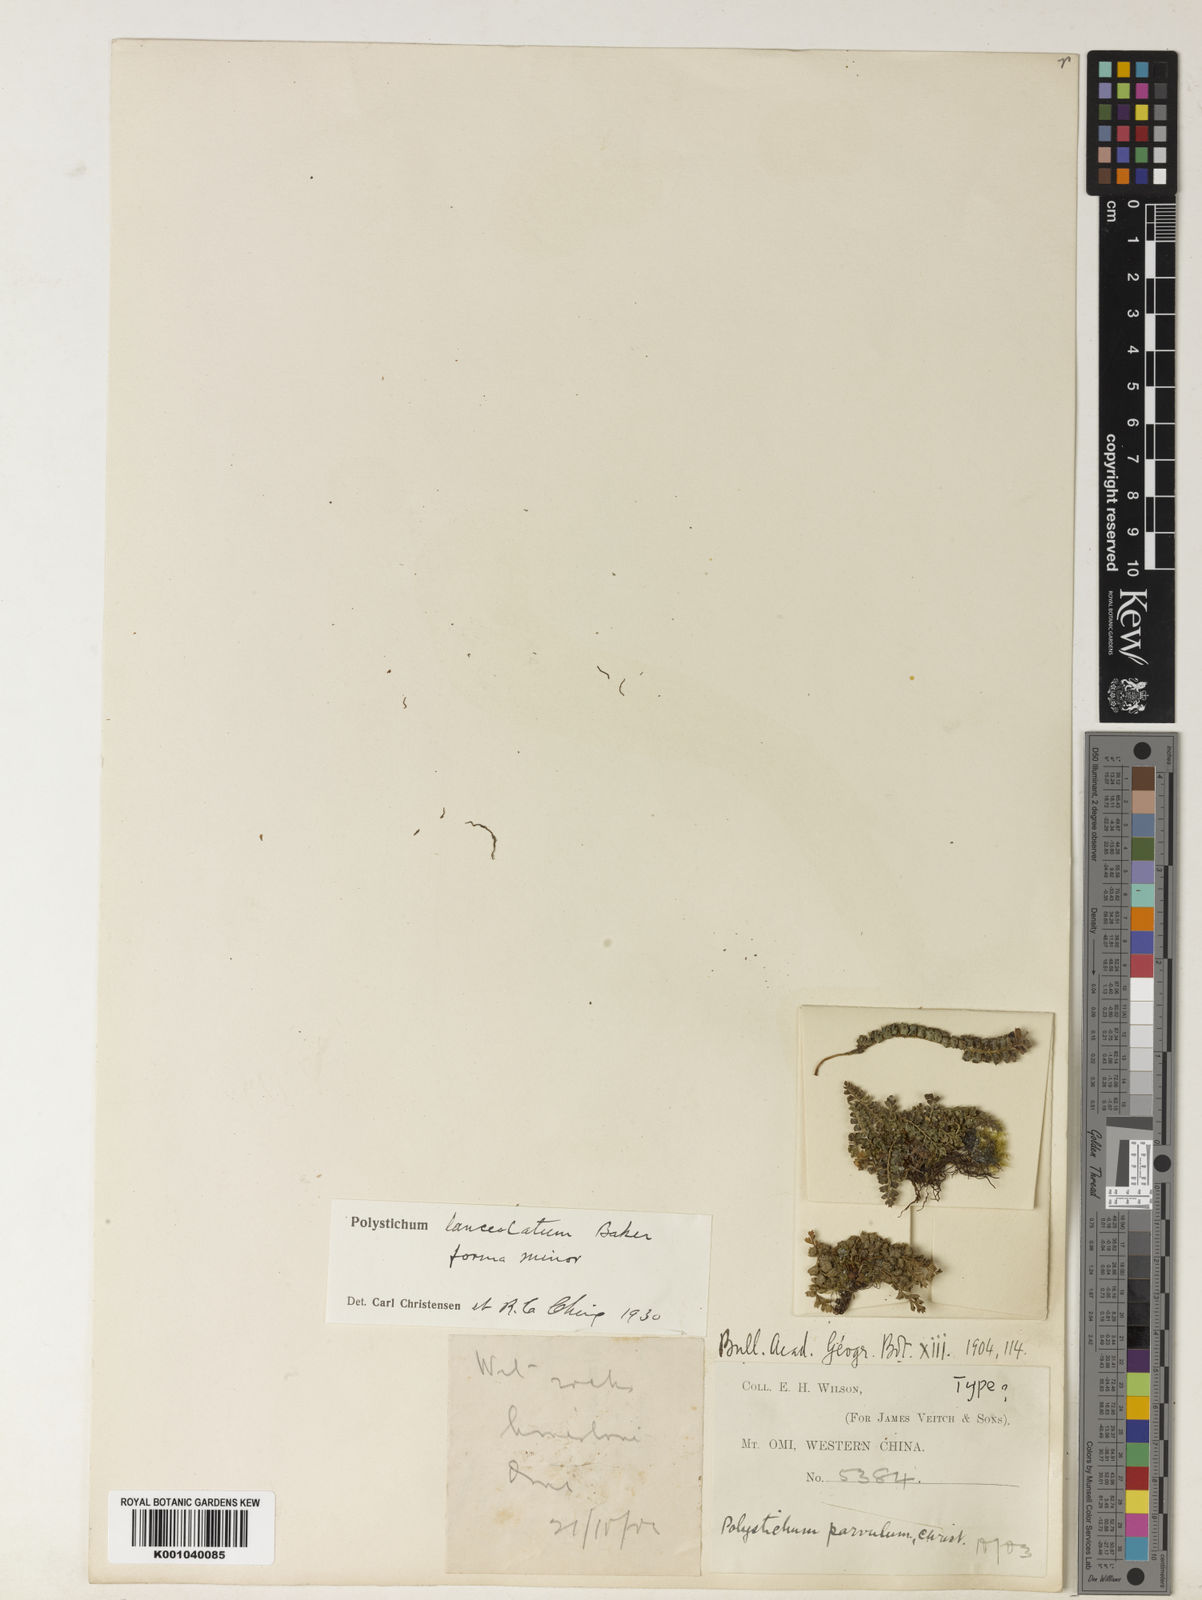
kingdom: Plantae
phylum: Tracheophyta
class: Polypodiopsida
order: Polypodiales
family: Dryopteridaceae
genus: Polystichum
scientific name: Polystichum lanceolatum
